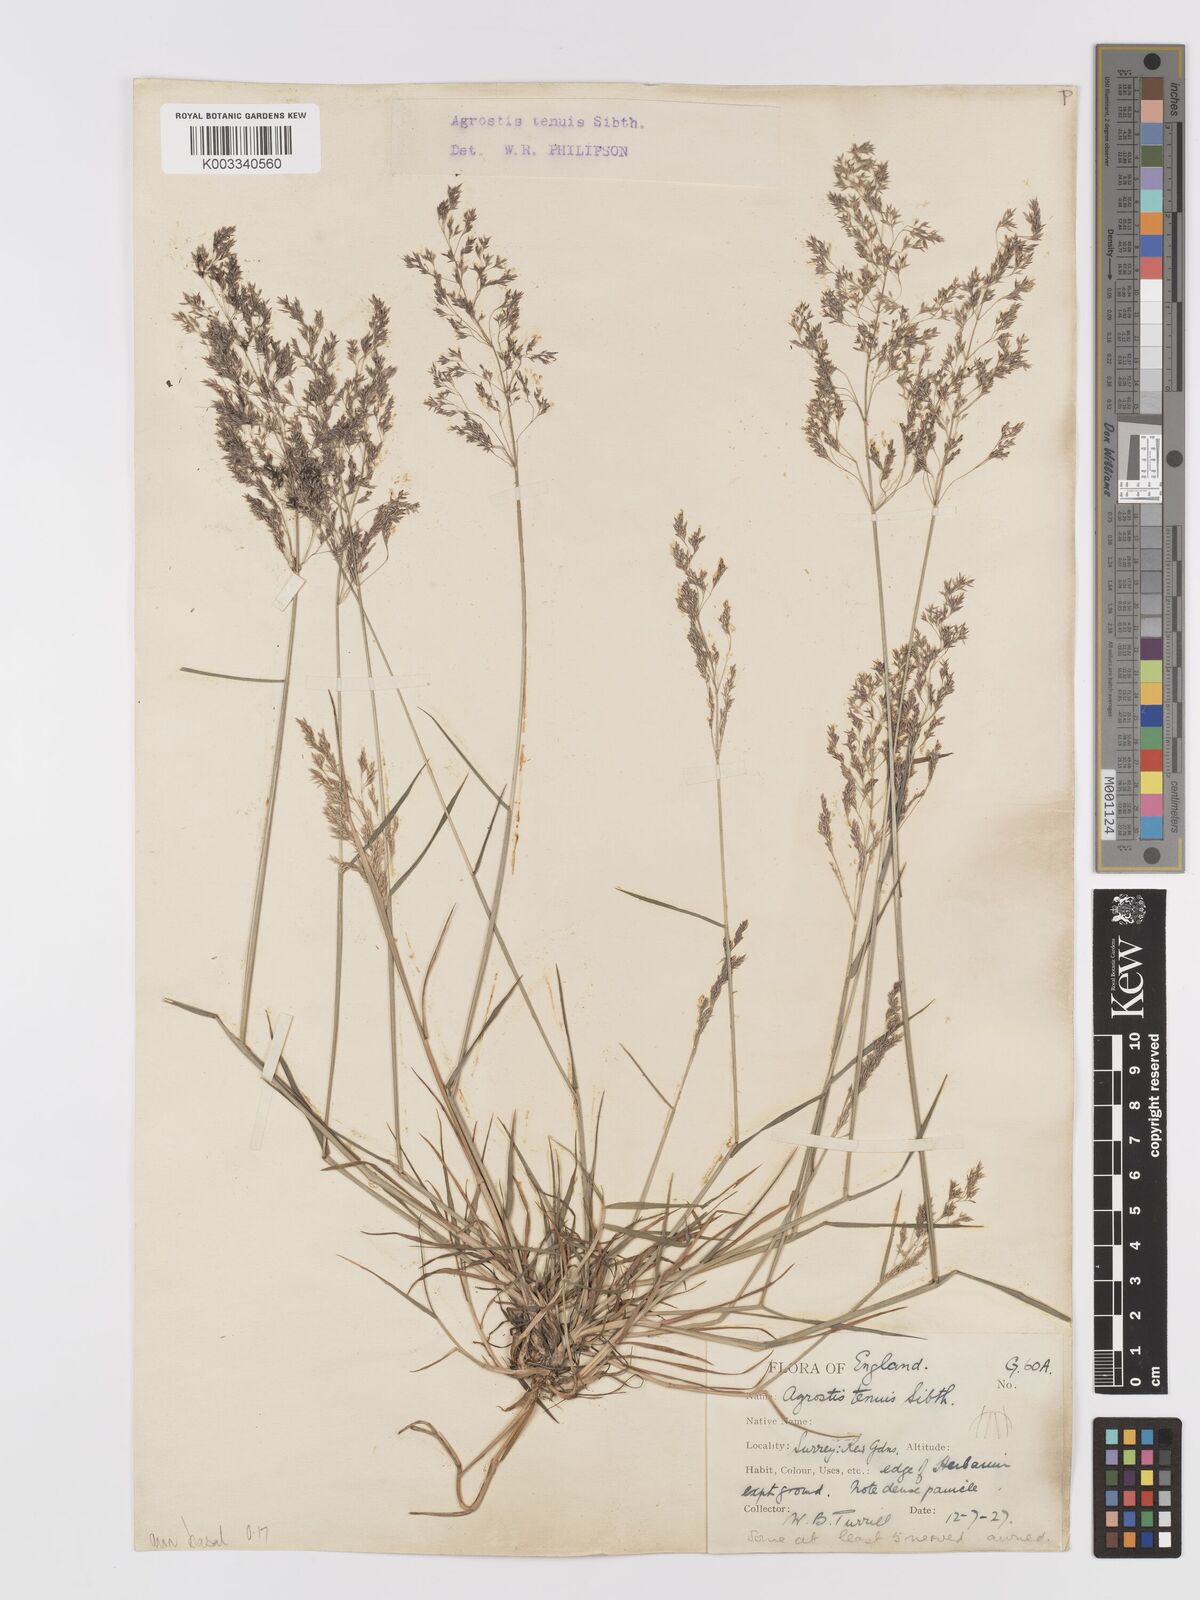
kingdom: Plantae
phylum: Tracheophyta
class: Liliopsida
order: Poales
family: Poaceae
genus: Agrostis
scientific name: Agrostis capillaris
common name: Colonial bentgrass
